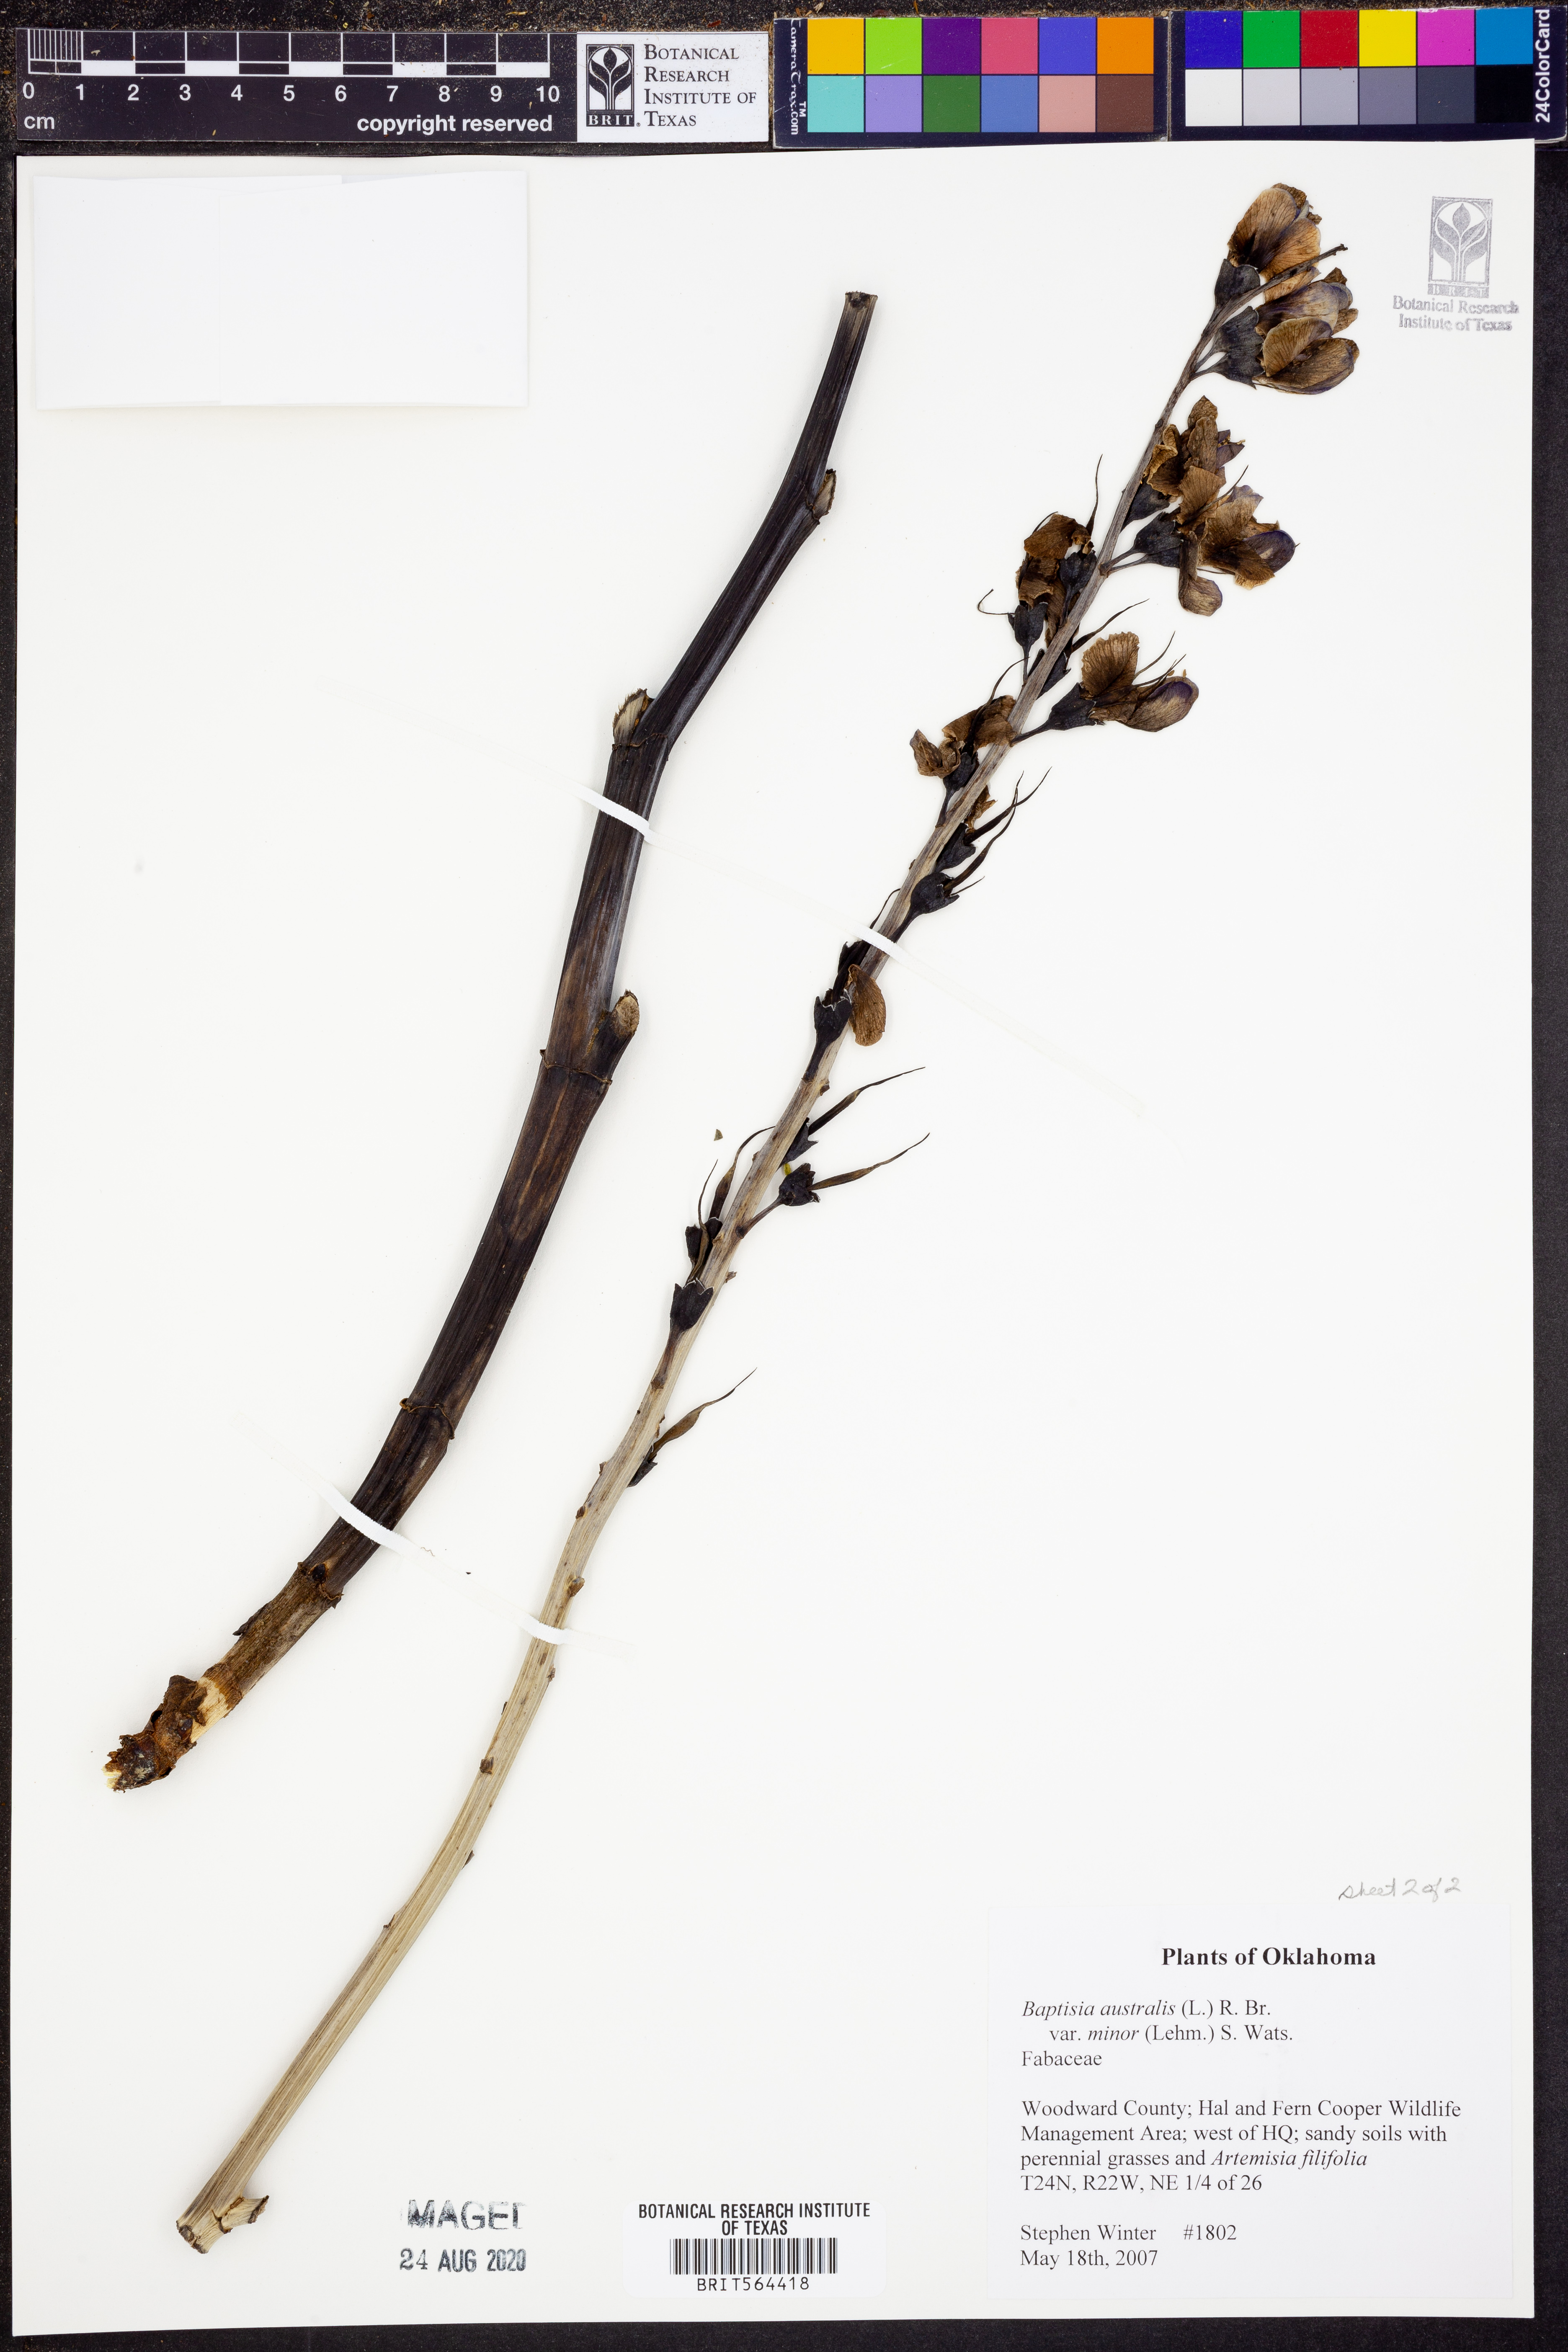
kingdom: Plantae
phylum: Tracheophyta
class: Magnoliopsida
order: Fabales
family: Fabaceae
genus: Baptisia
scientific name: Baptisia australis
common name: Blue false indigo
